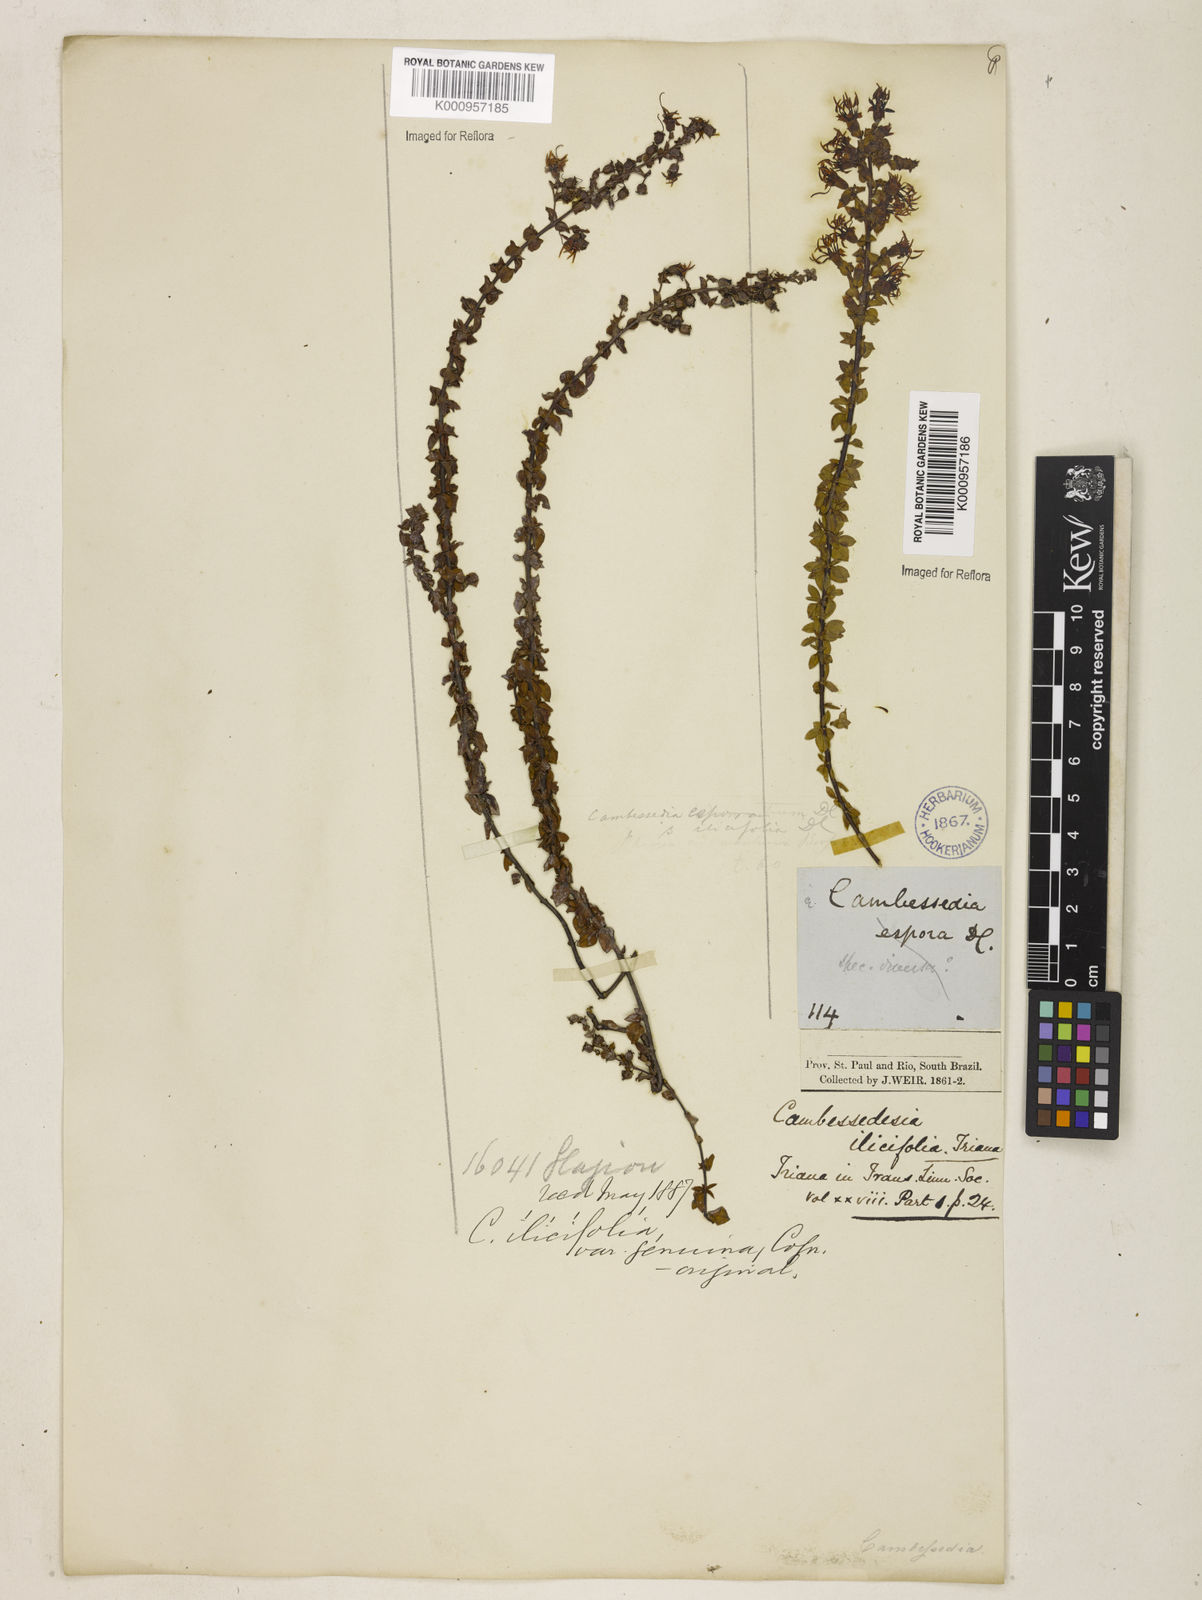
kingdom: Plantae
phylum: Tracheophyta
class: Magnoliopsida
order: Myrtales
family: Melastomataceae
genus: Cambessedesia
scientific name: Cambessedesia espora
